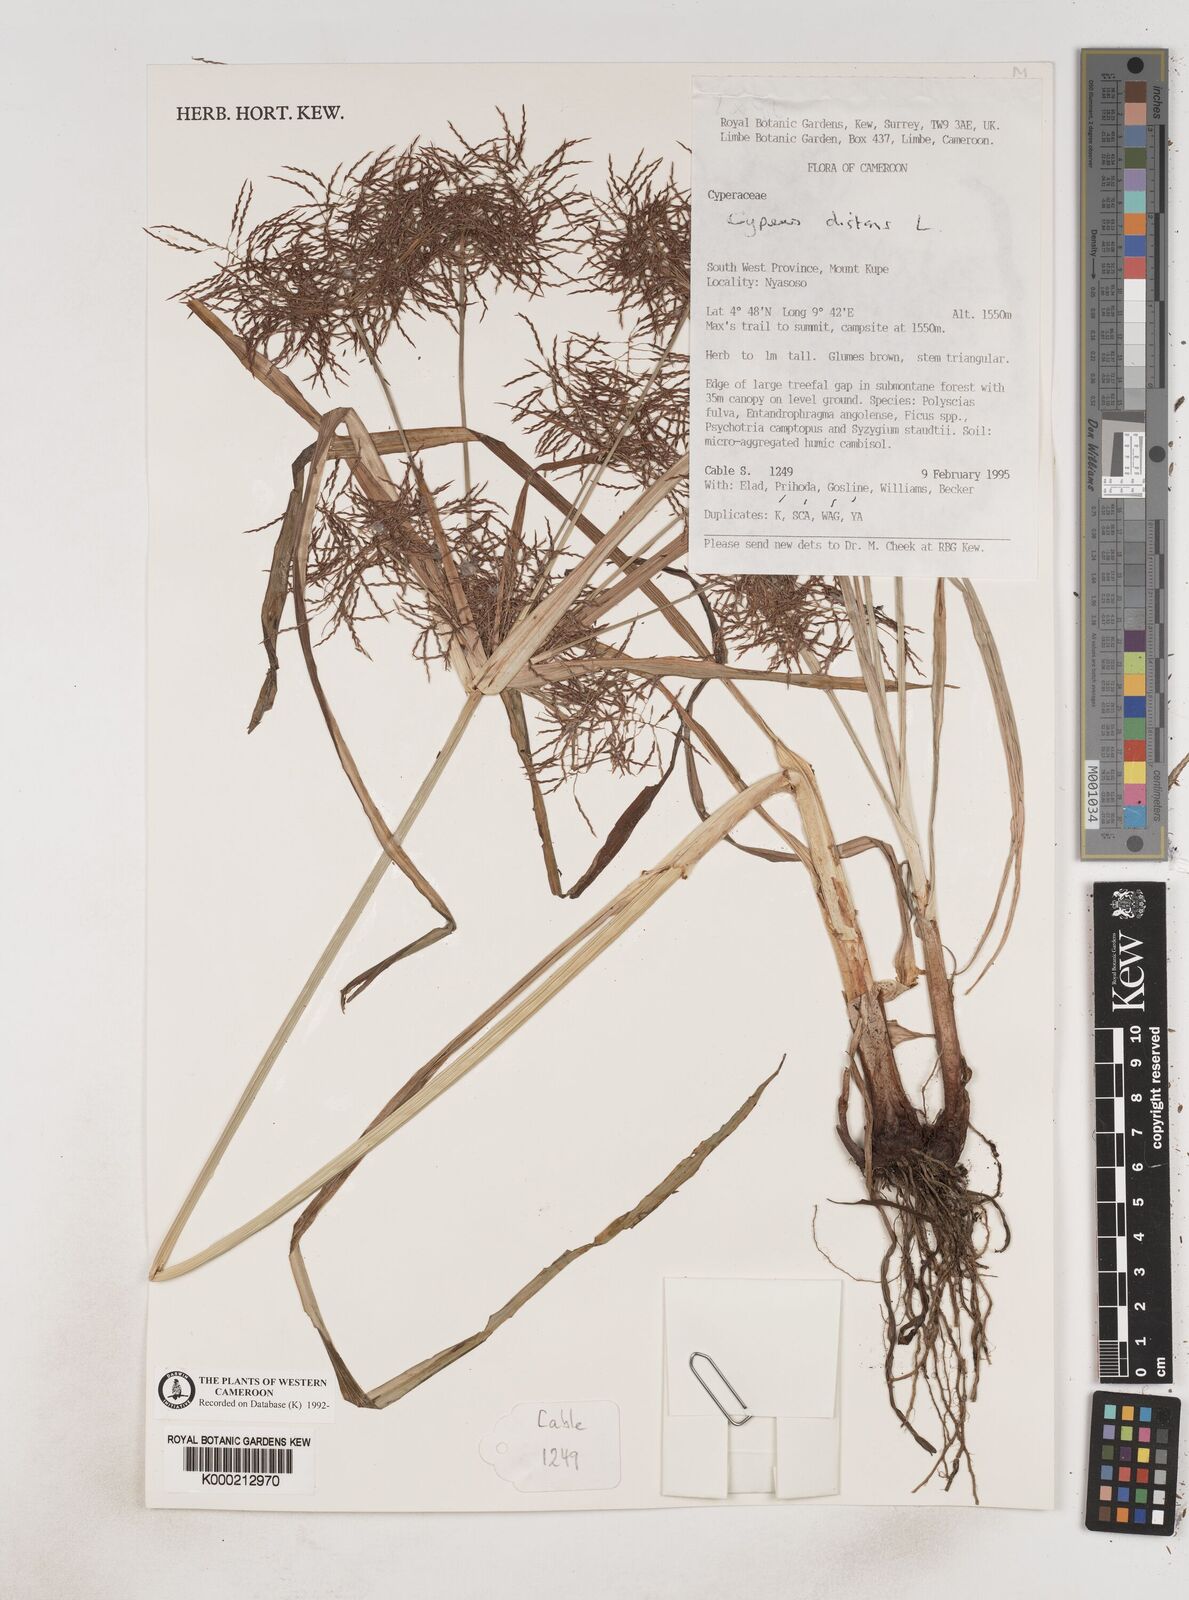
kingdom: Plantae
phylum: Tracheophyta
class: Liliopsida
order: Poales
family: Cyperaceae
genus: Cyperus
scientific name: Cyperus distans
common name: Slender cyperus
